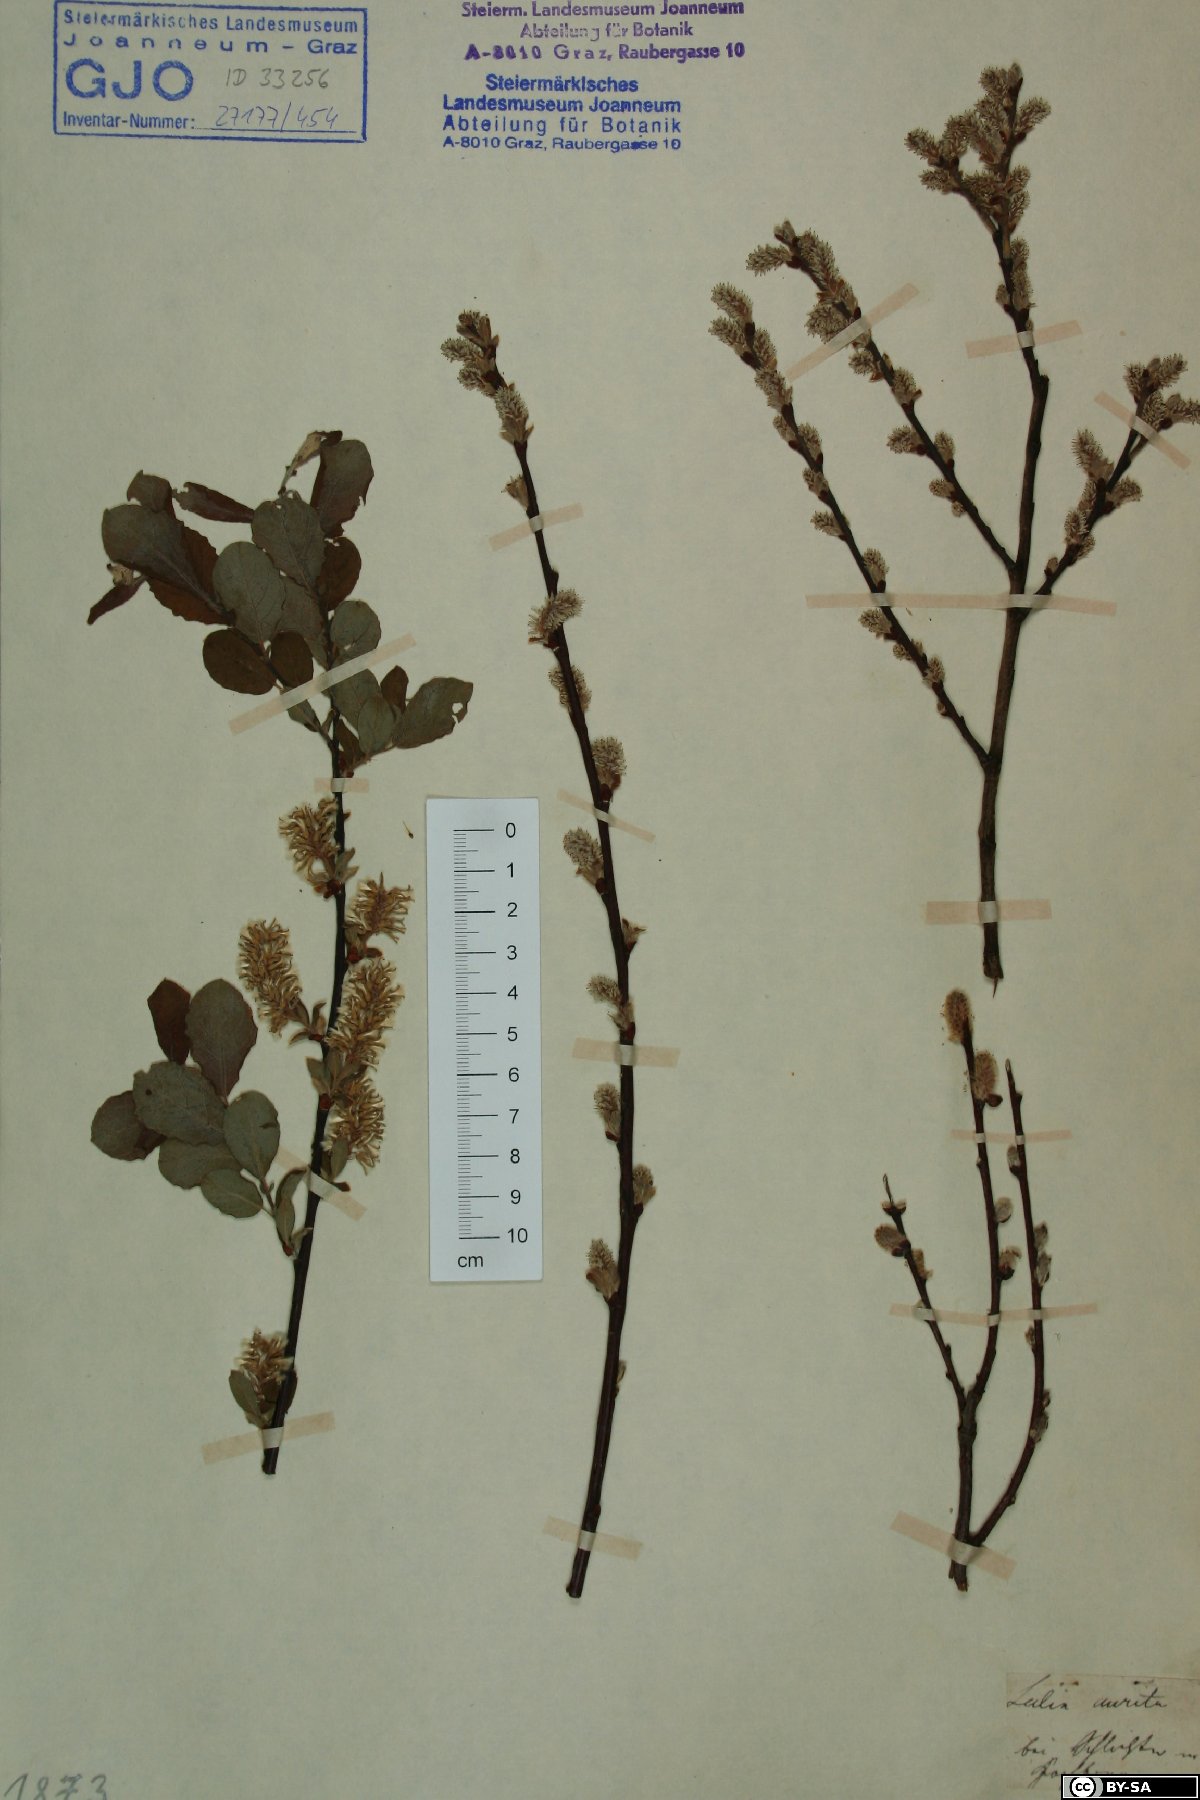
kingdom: Plantae
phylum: Tracheophyta
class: Magnoliopsida
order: Malpighiales
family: Salicaceae
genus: Salix
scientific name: Salix aurita
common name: Eared willow
